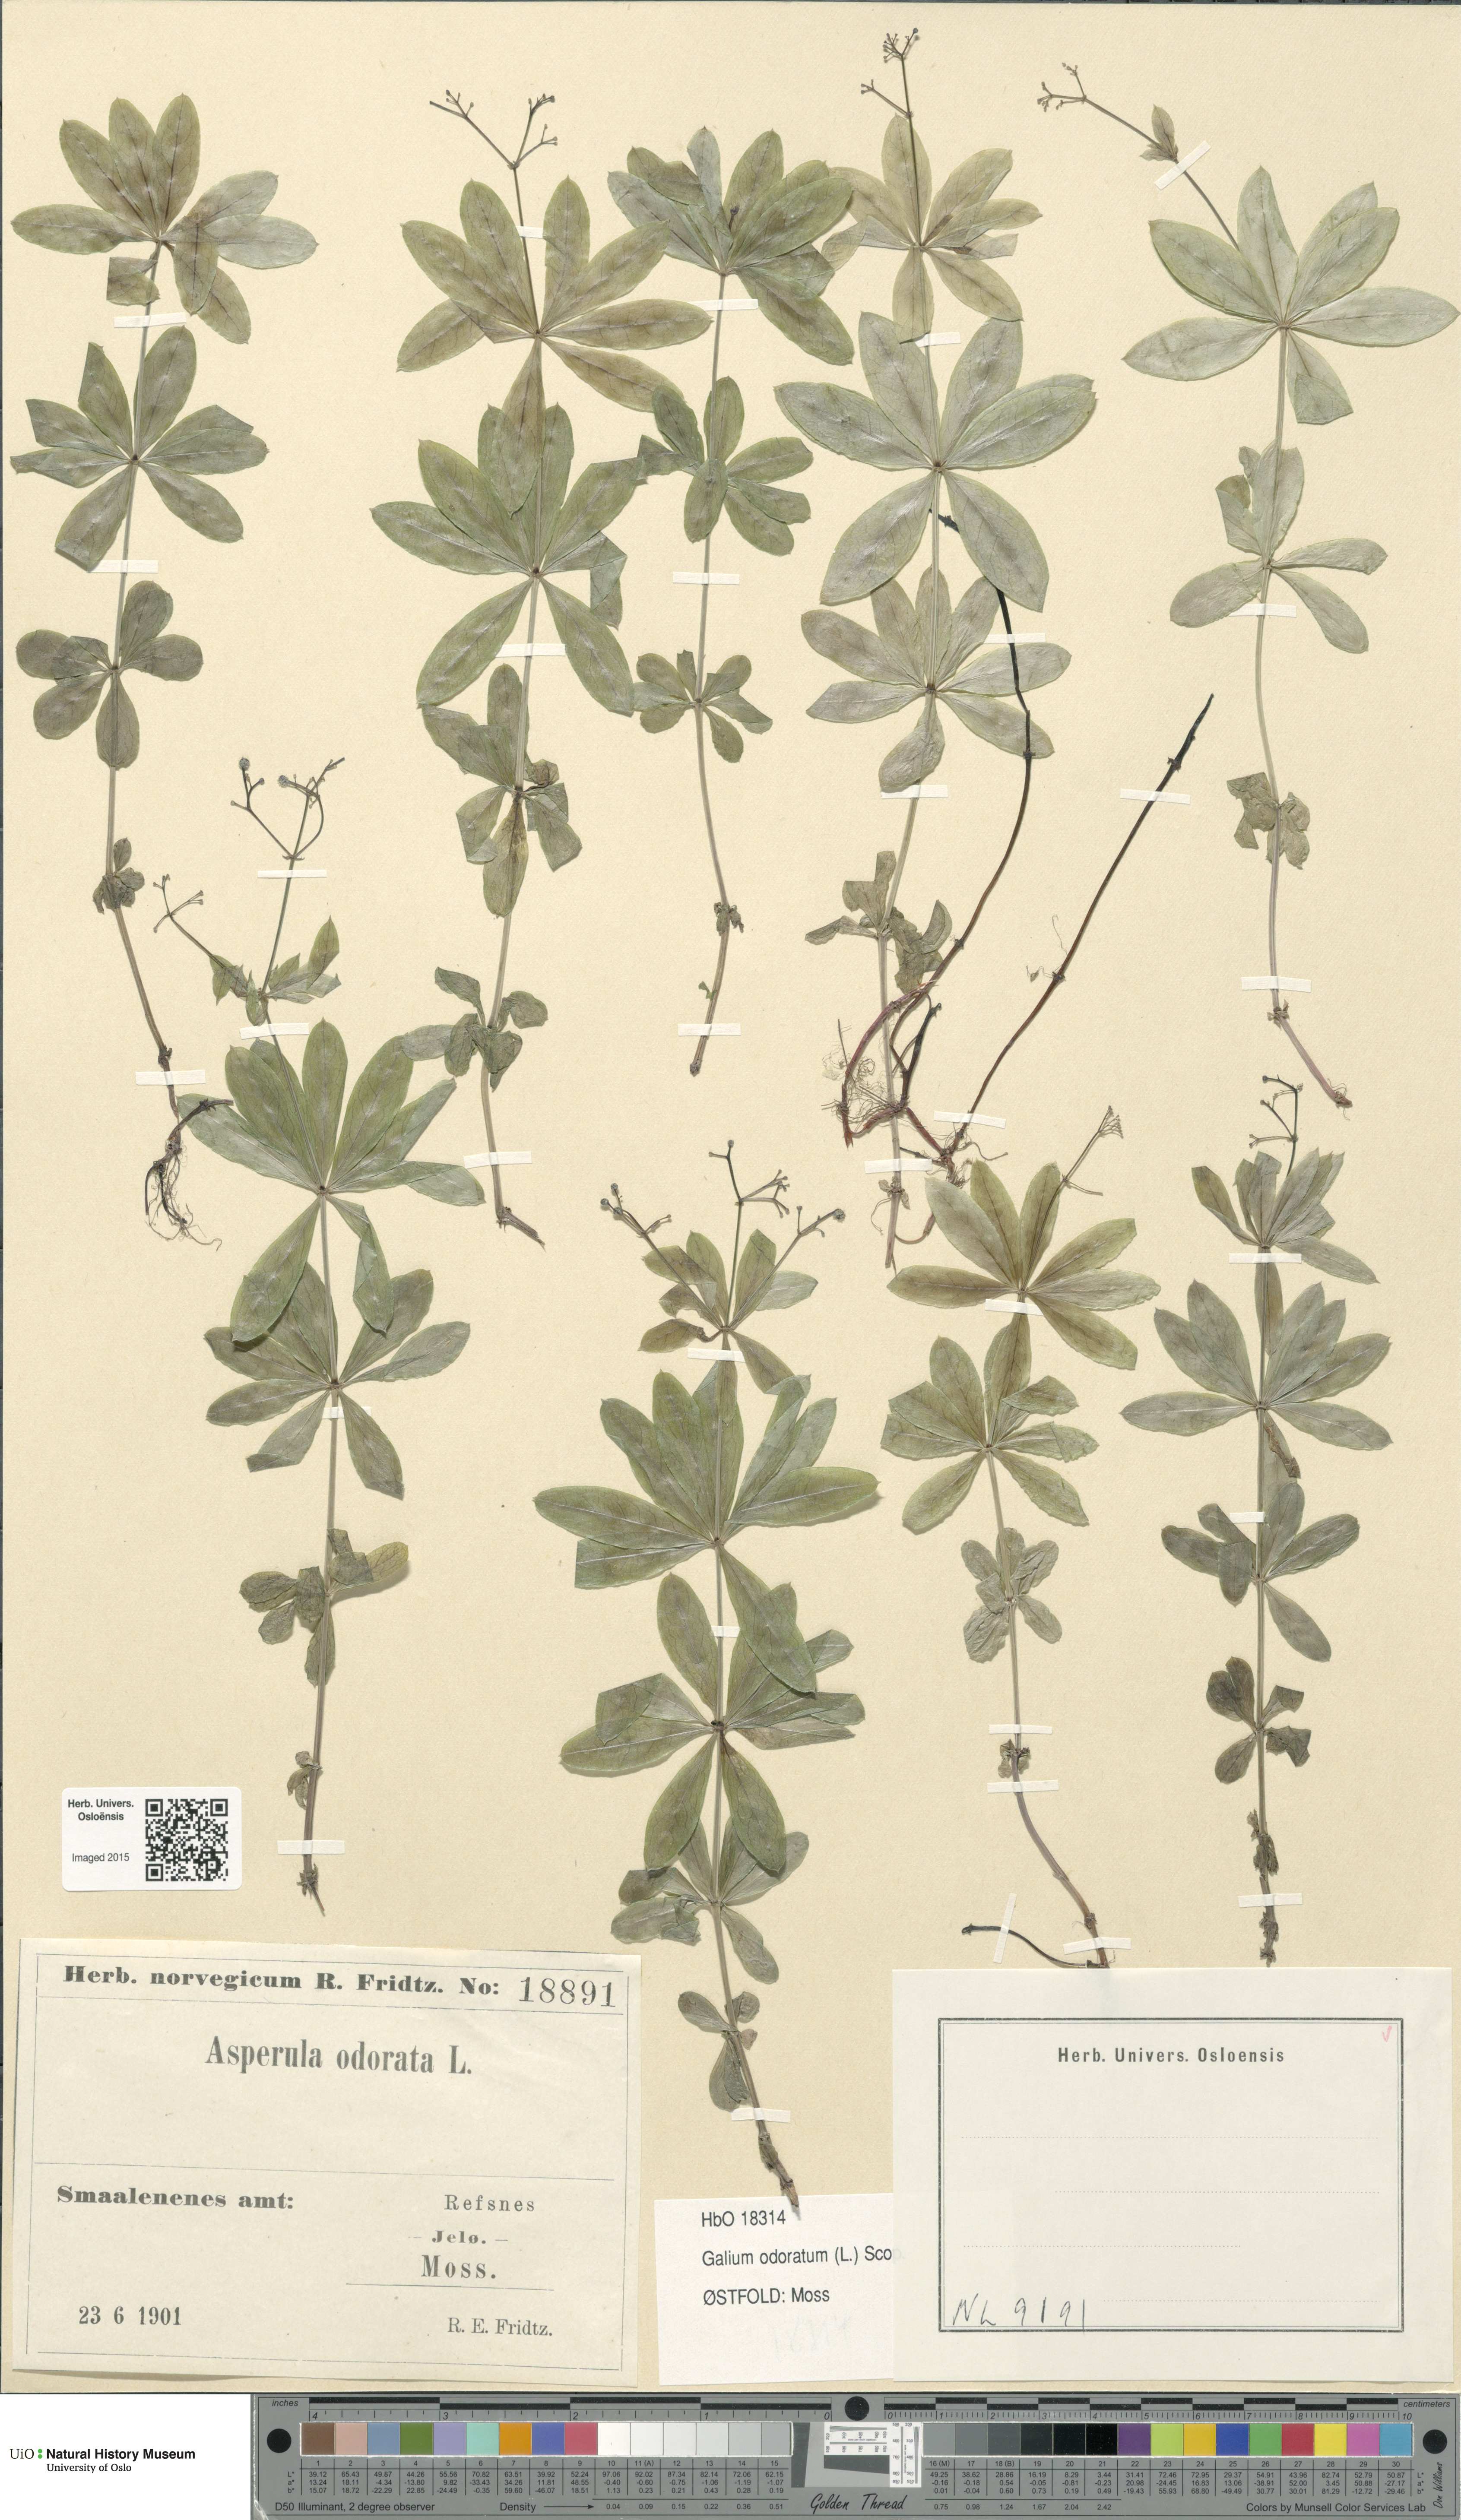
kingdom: Plantae
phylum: Tracheophyta
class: Magnoliopsida
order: Gentianales
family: Rubiaceae
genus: Galium
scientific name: Galium odoratum
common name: Sweet woodruff
